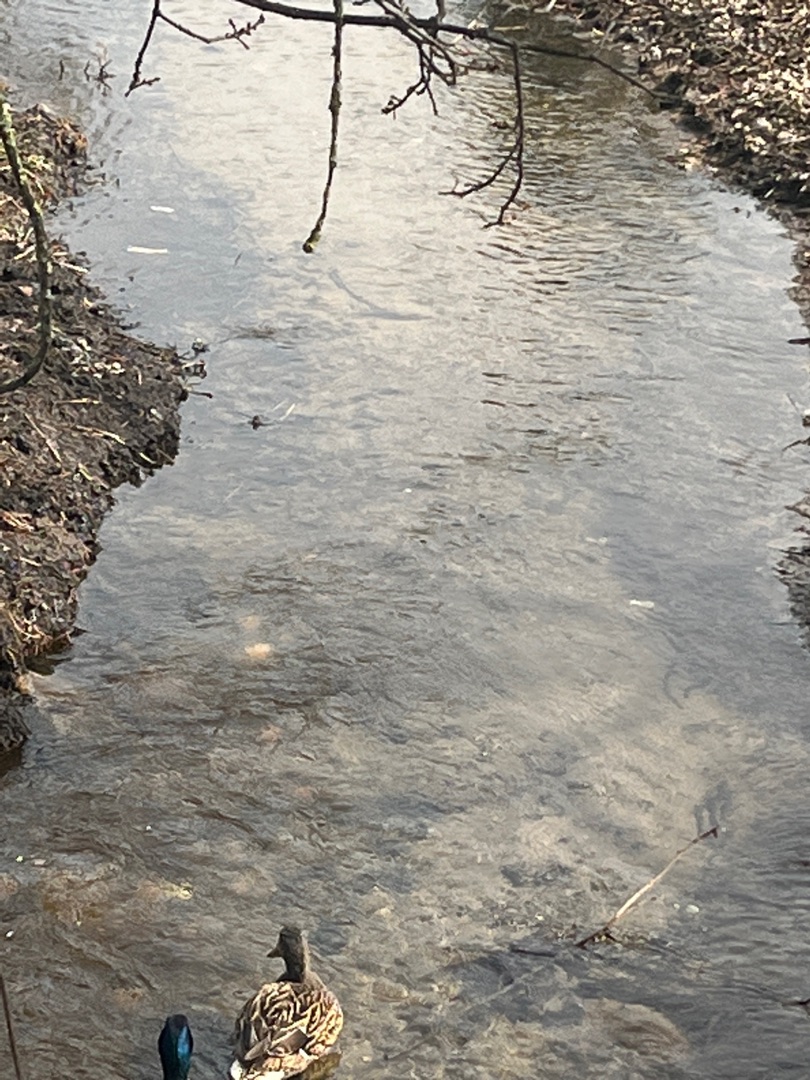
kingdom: Animalia
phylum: Chordata
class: Aves
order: Anseriformes
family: Anatidae
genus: Anas
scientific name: Anas platyrhynchos
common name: Gråand
